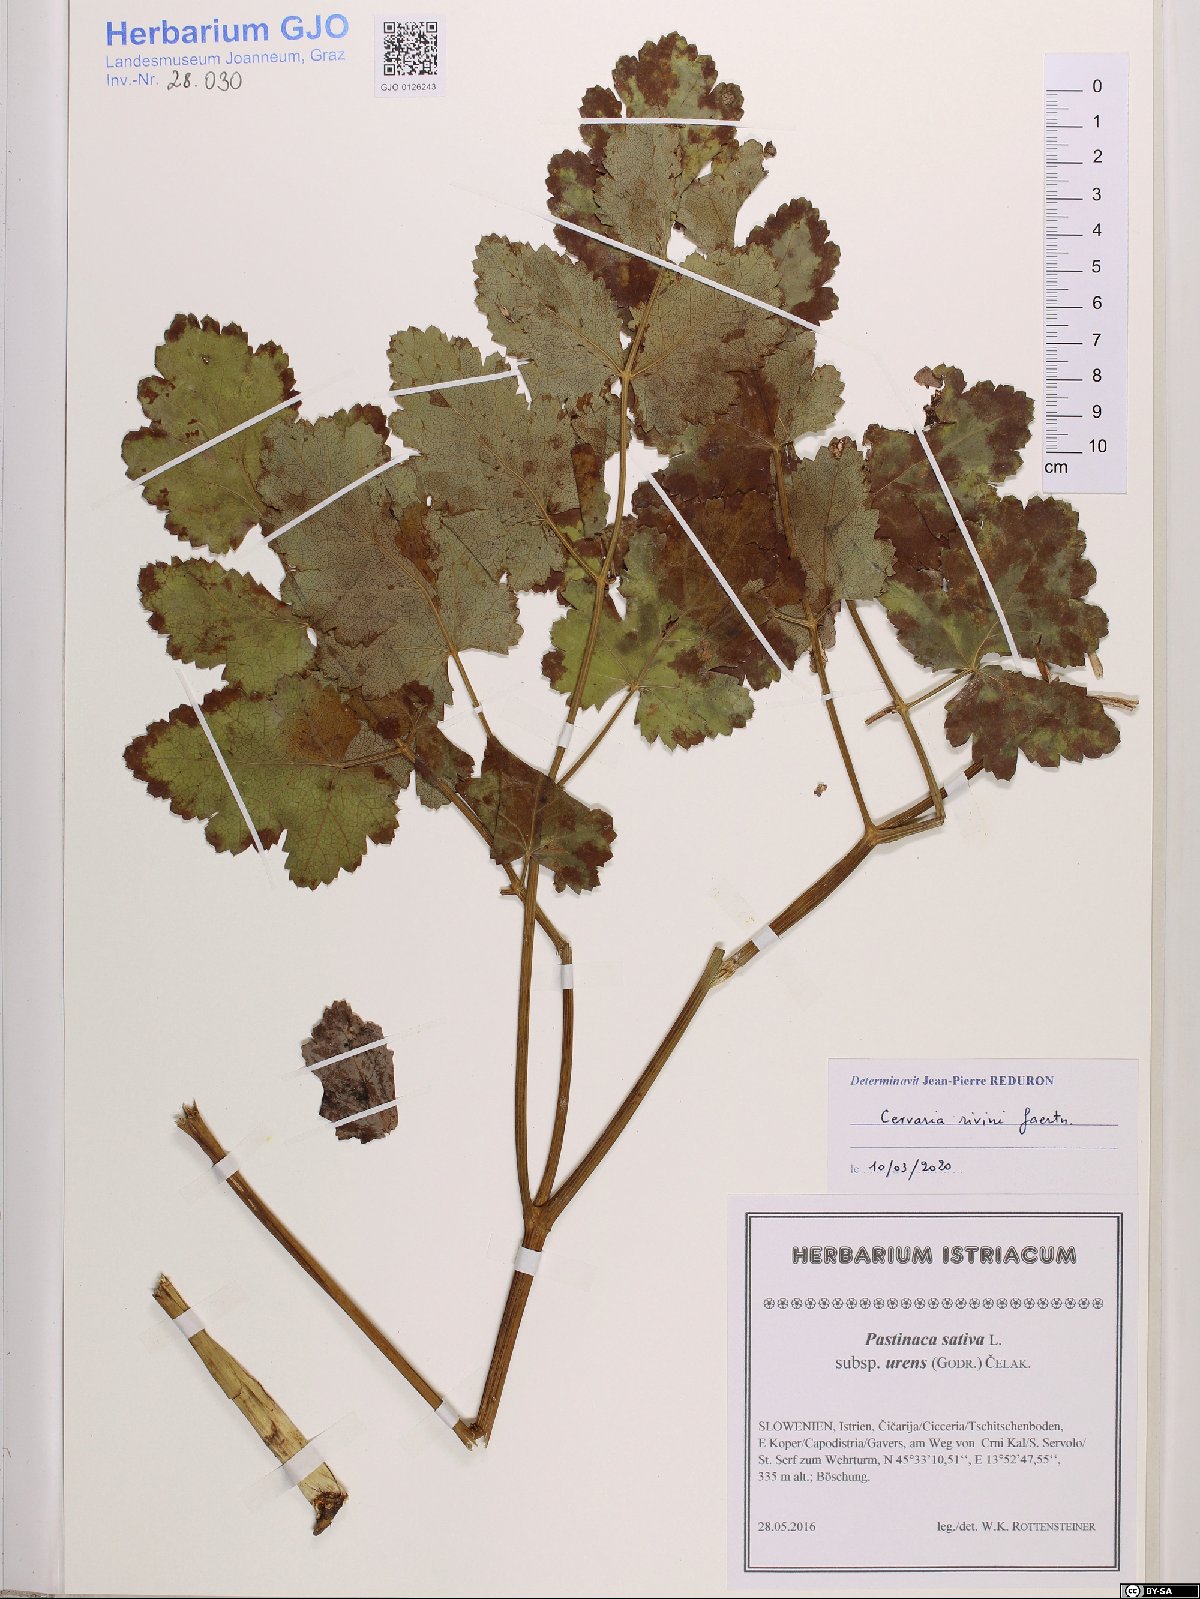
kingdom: Plantae
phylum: Tracheophyta
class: Magnoliopsida
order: Apiales
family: Apiaceae
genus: Cervaria
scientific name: Cervaria rivini
